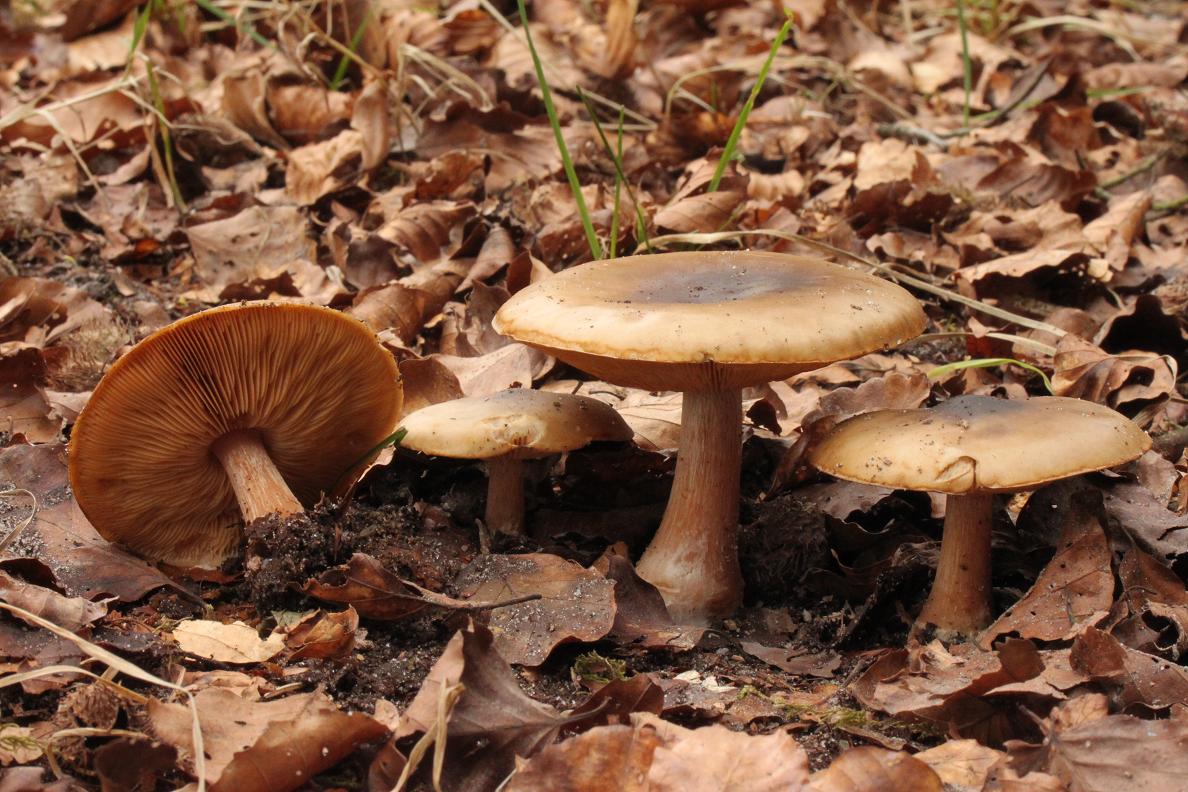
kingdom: Fungi
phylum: Basidiomycota
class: Agaricomycetes
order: Agaricales
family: Tricholomataceae
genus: Melanoleuca
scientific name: Melanoleuca cognata
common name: gyldengrå munkehat
